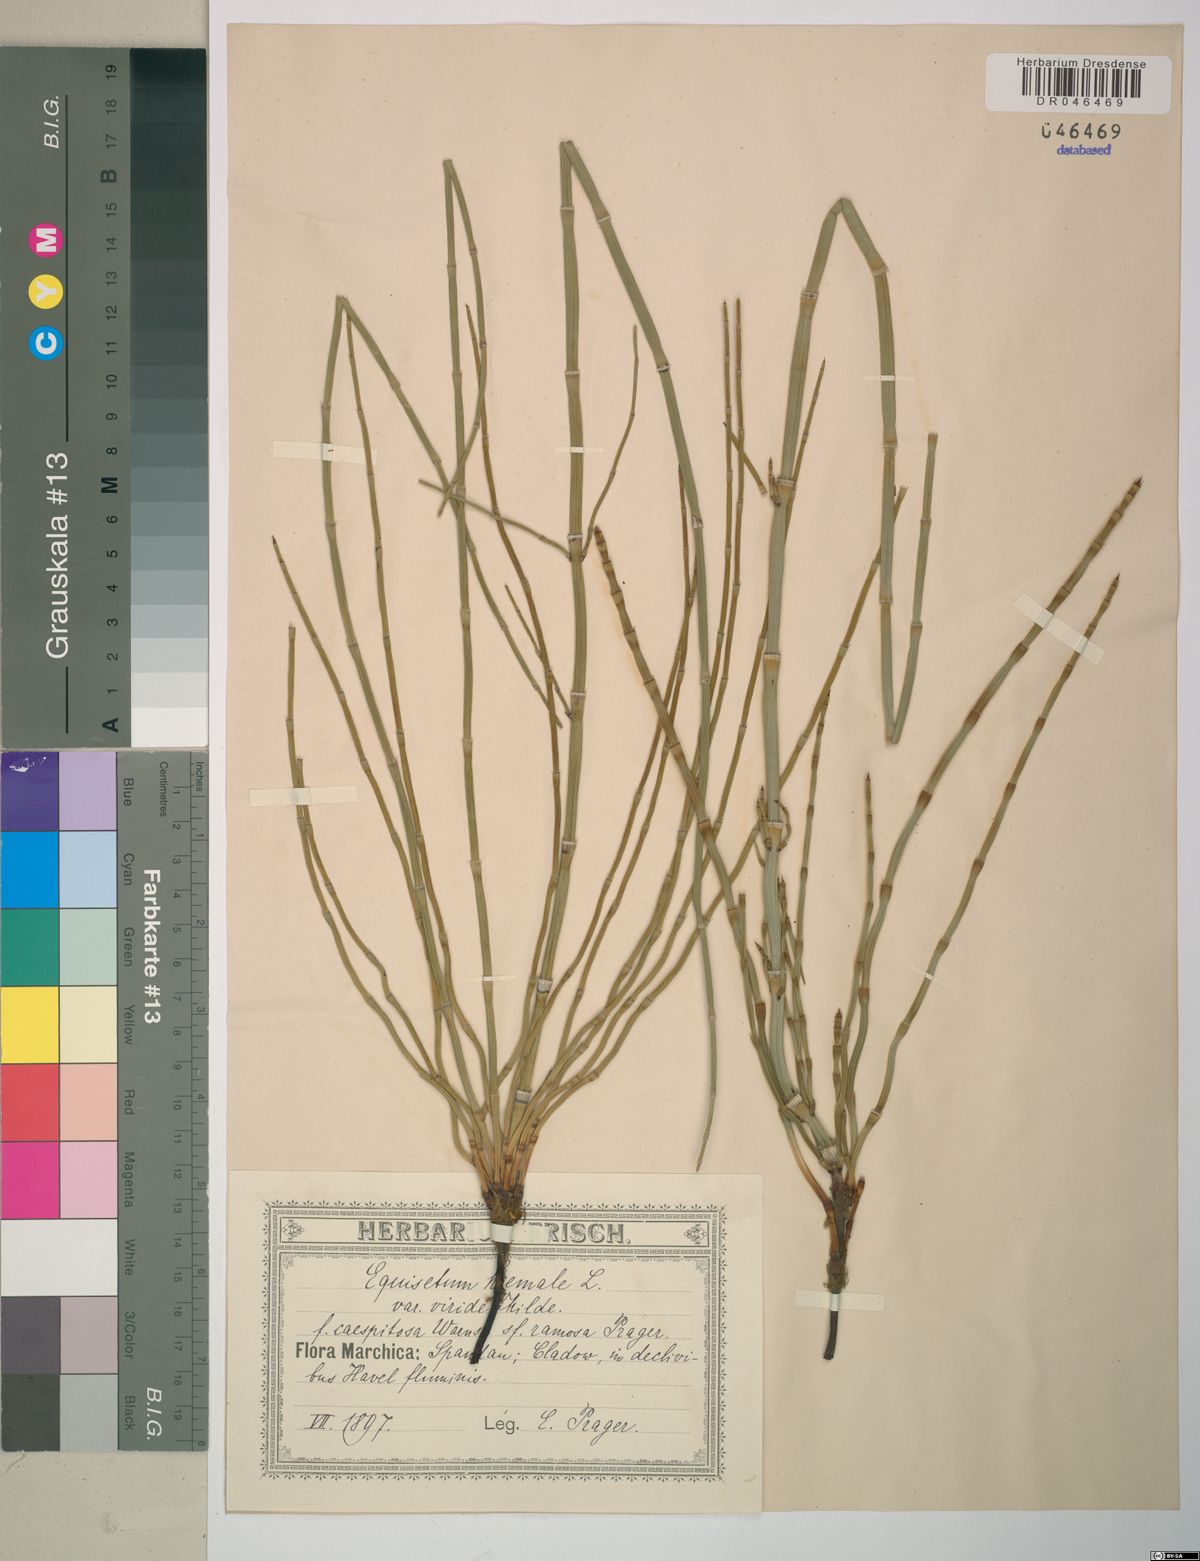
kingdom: Plantae
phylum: Tracheophyta
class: Polypodiopsida
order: Equisetales
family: Equisetaceae
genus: Equisetum
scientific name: Equisetum hyemale
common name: Rough horsetail
